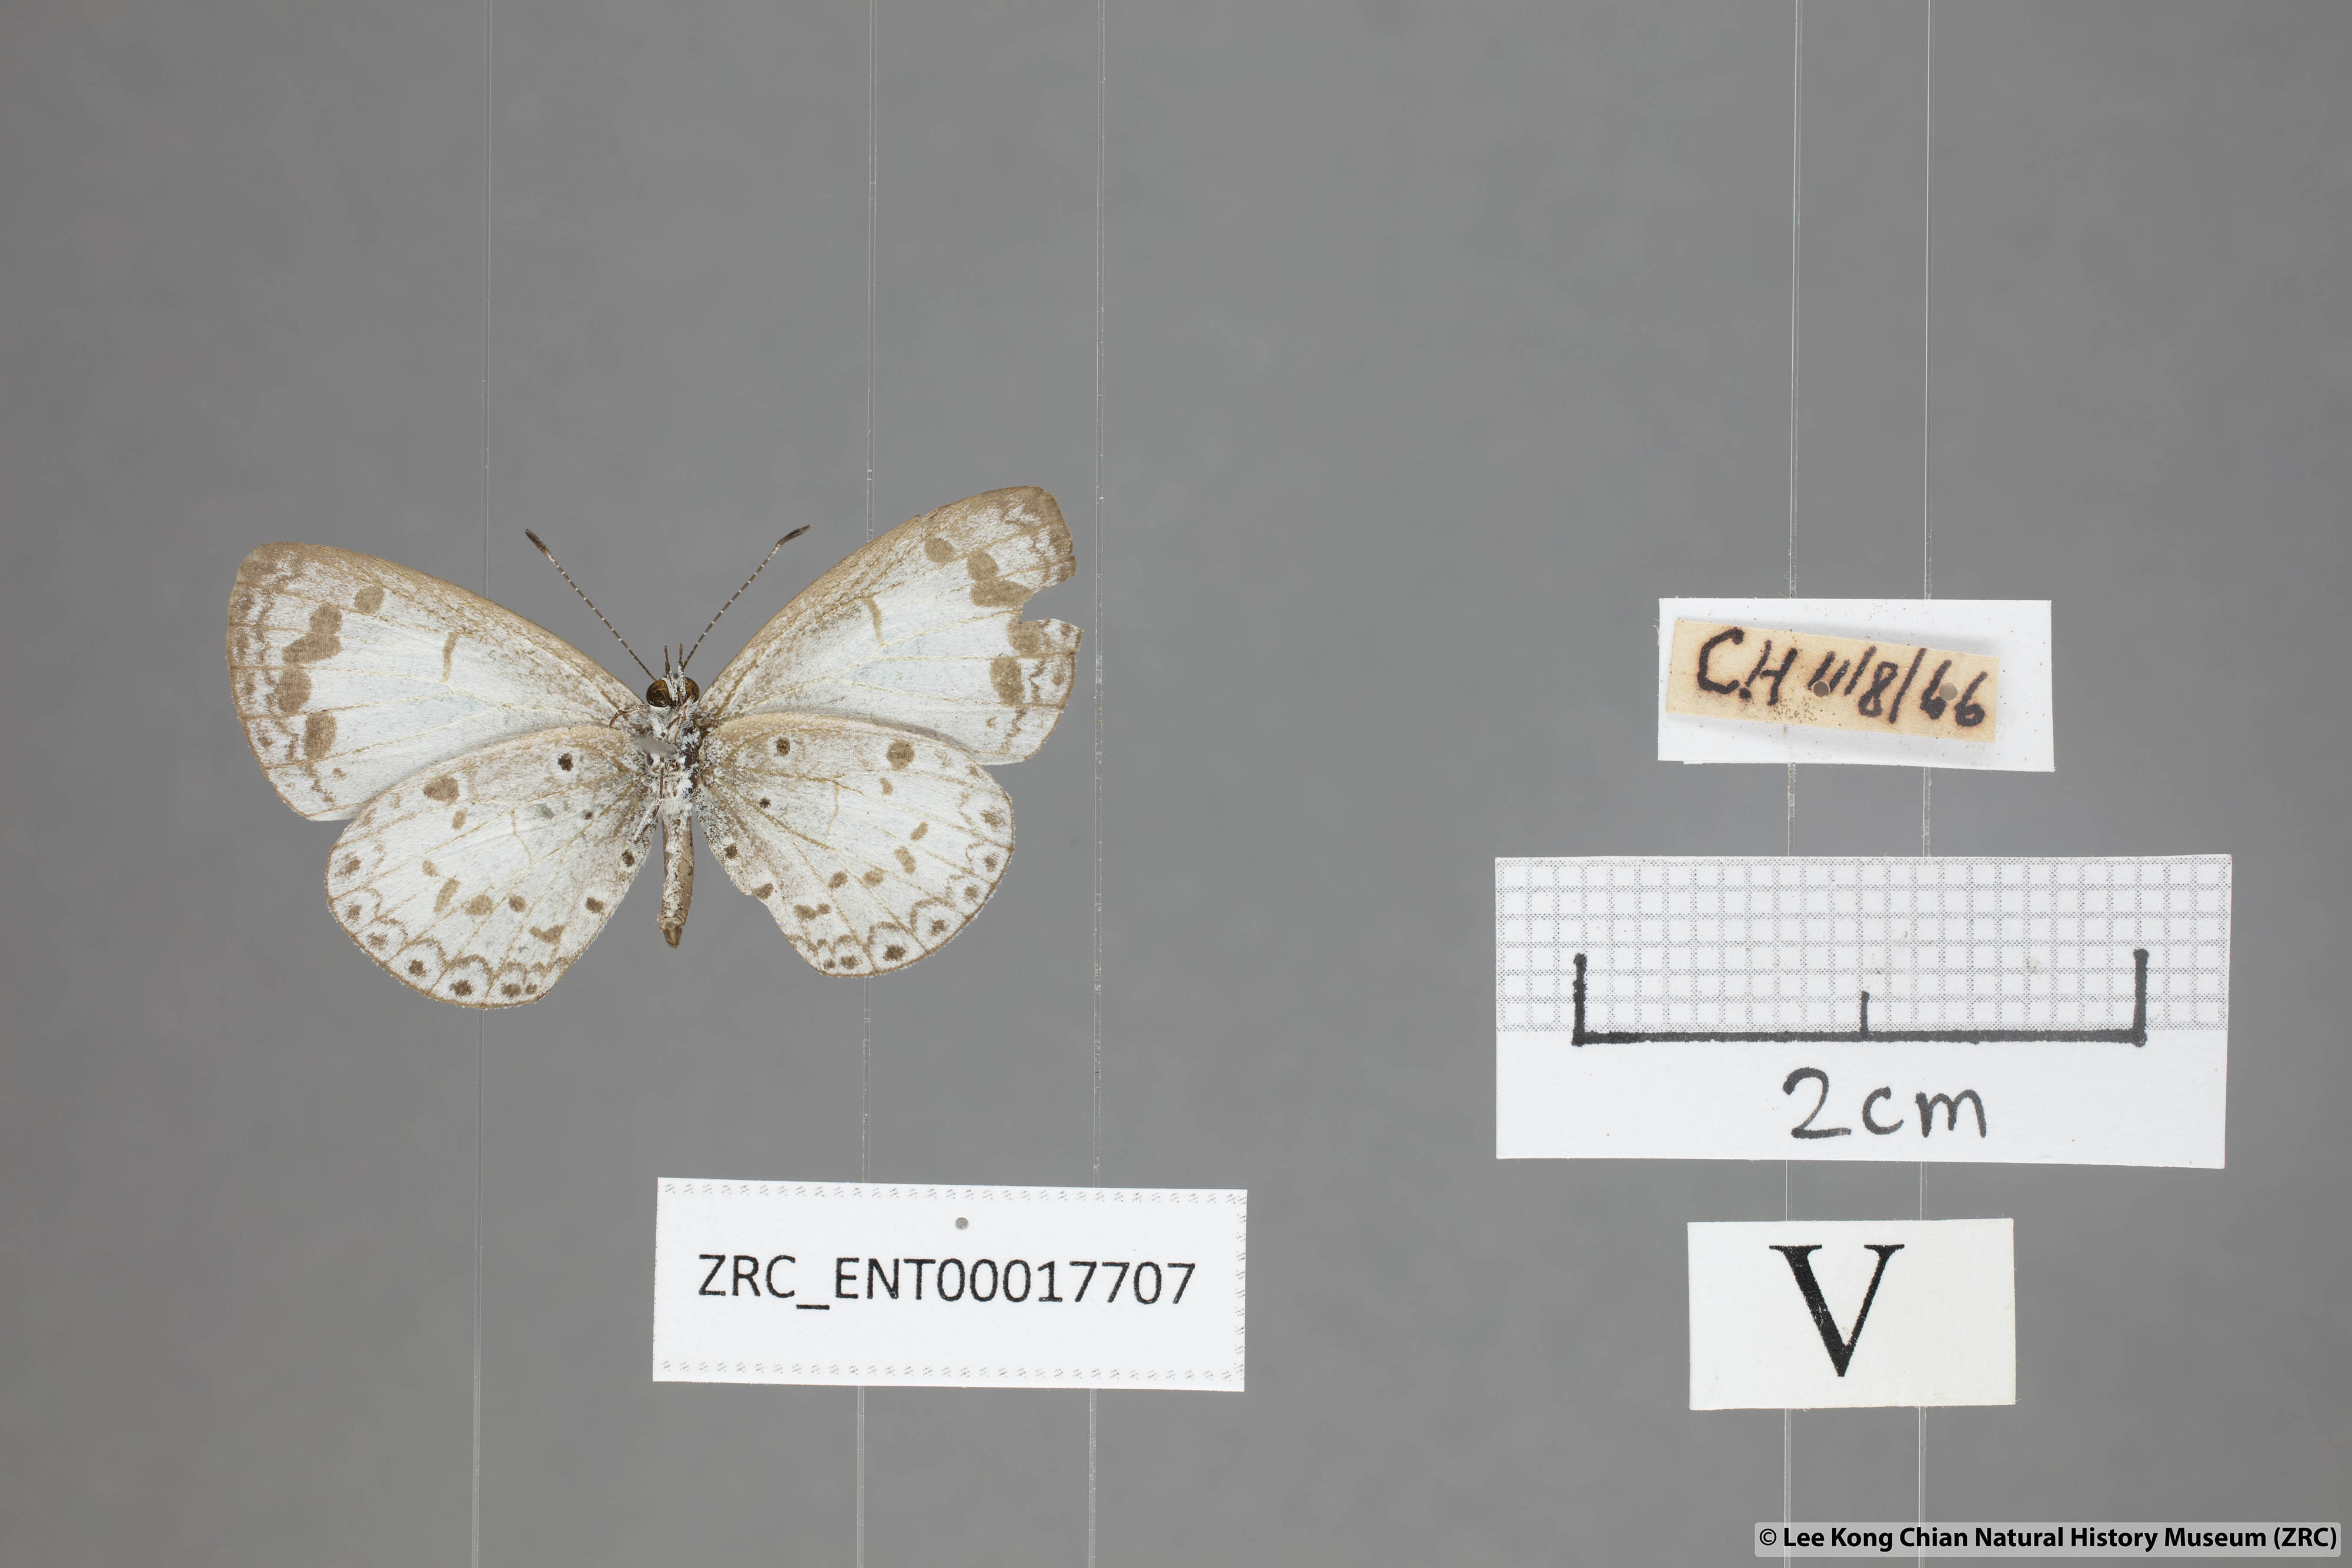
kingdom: Animalia
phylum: Arthropoda
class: Insecta
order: Lepidoptera
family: Lycaenidae
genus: Lycaenopsis
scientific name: Lycaenopsis marginata
